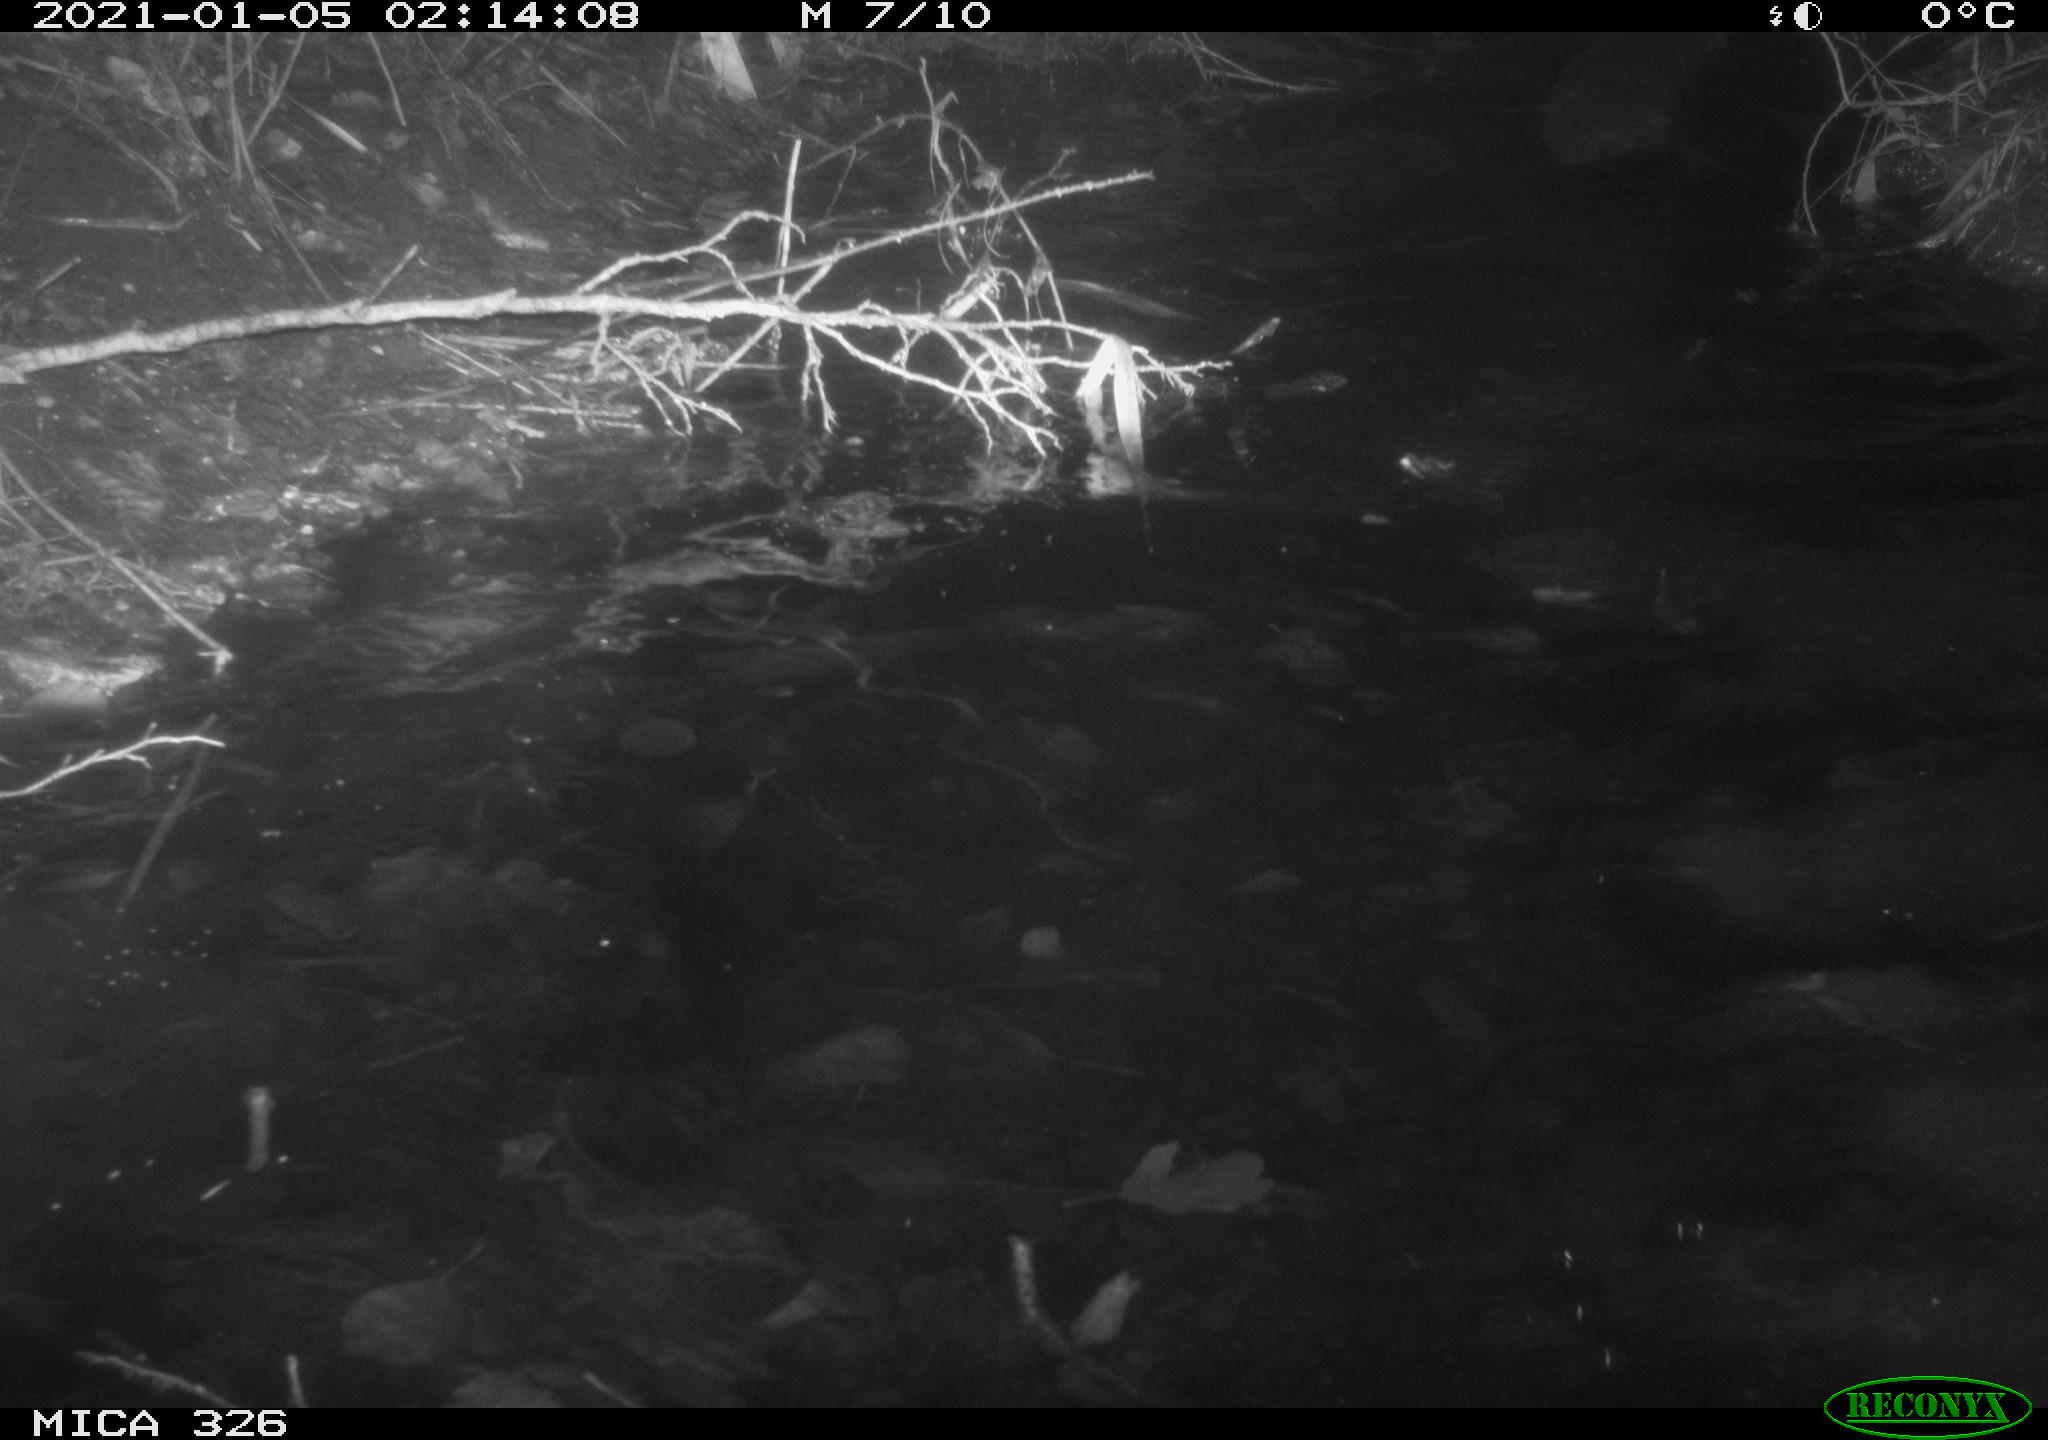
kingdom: Animalia
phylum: Chordata
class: Mammalia
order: Carnivora
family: Mustelidae
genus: Lutra
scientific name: Lutra lutra
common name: European otter
